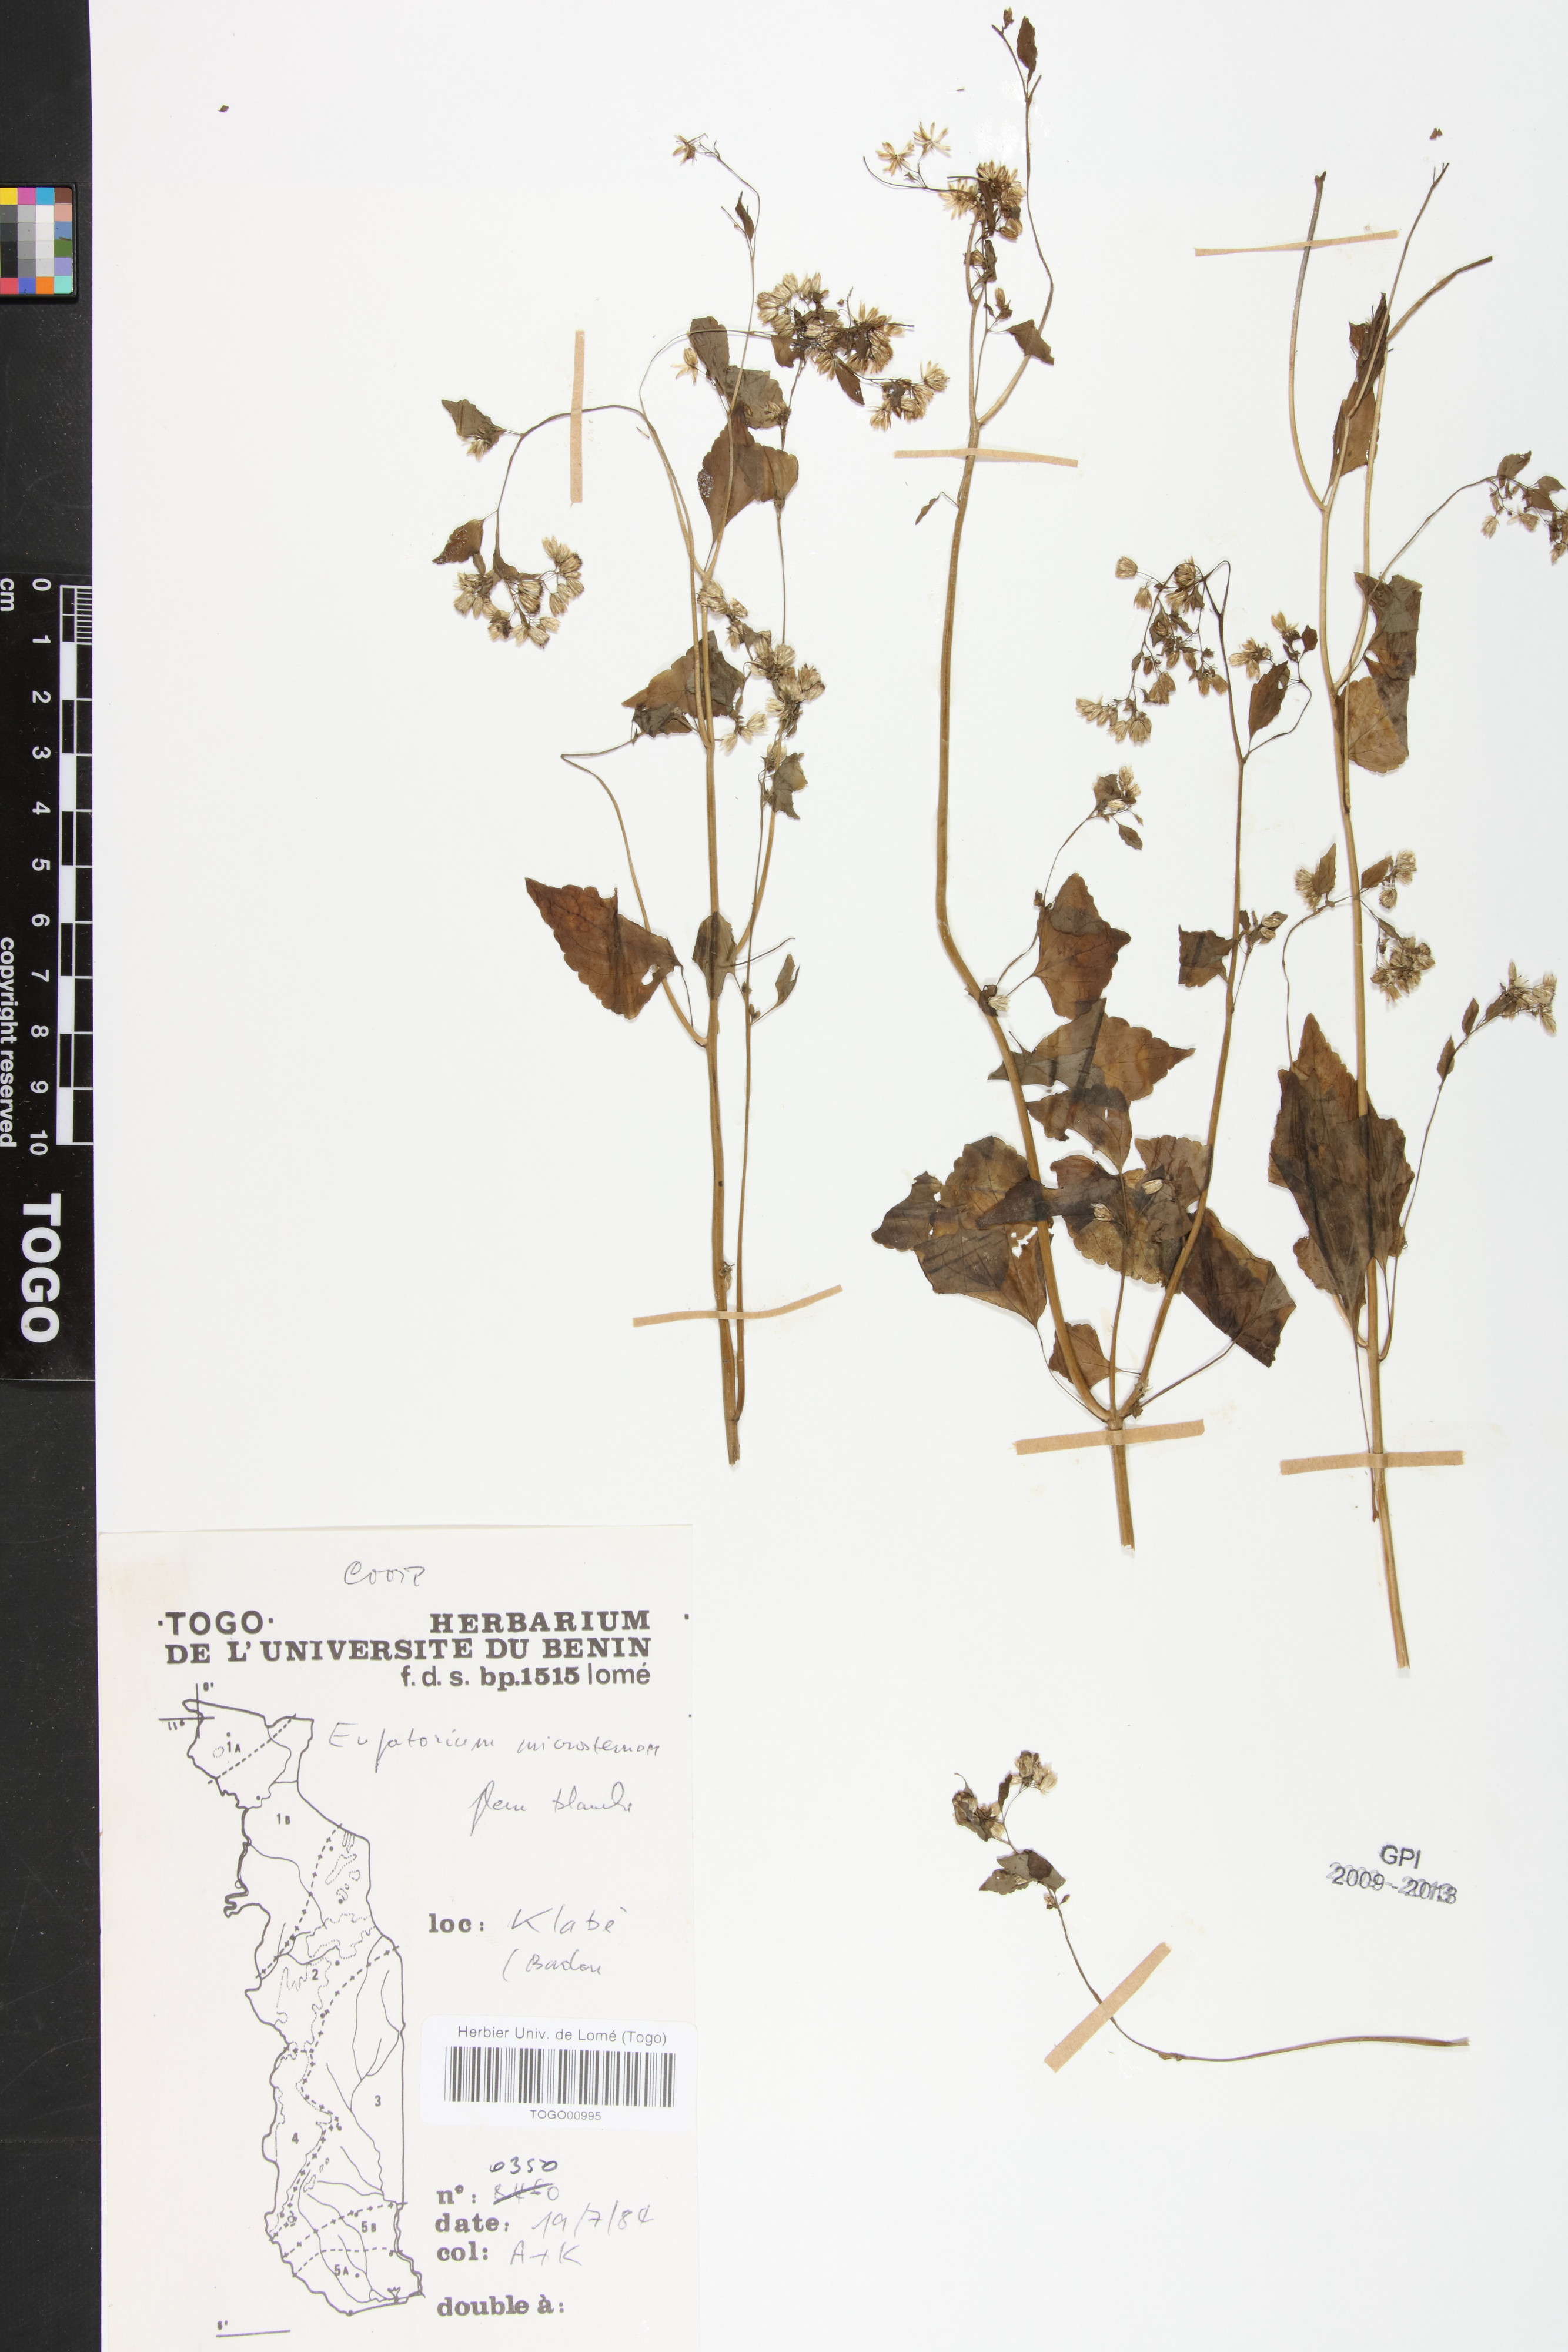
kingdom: Plantae
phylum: Tracheophyta
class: Magnoliopsida
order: Asterales
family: Asteraceae
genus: Fleischmannia
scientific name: Fleischmannia microstemon
